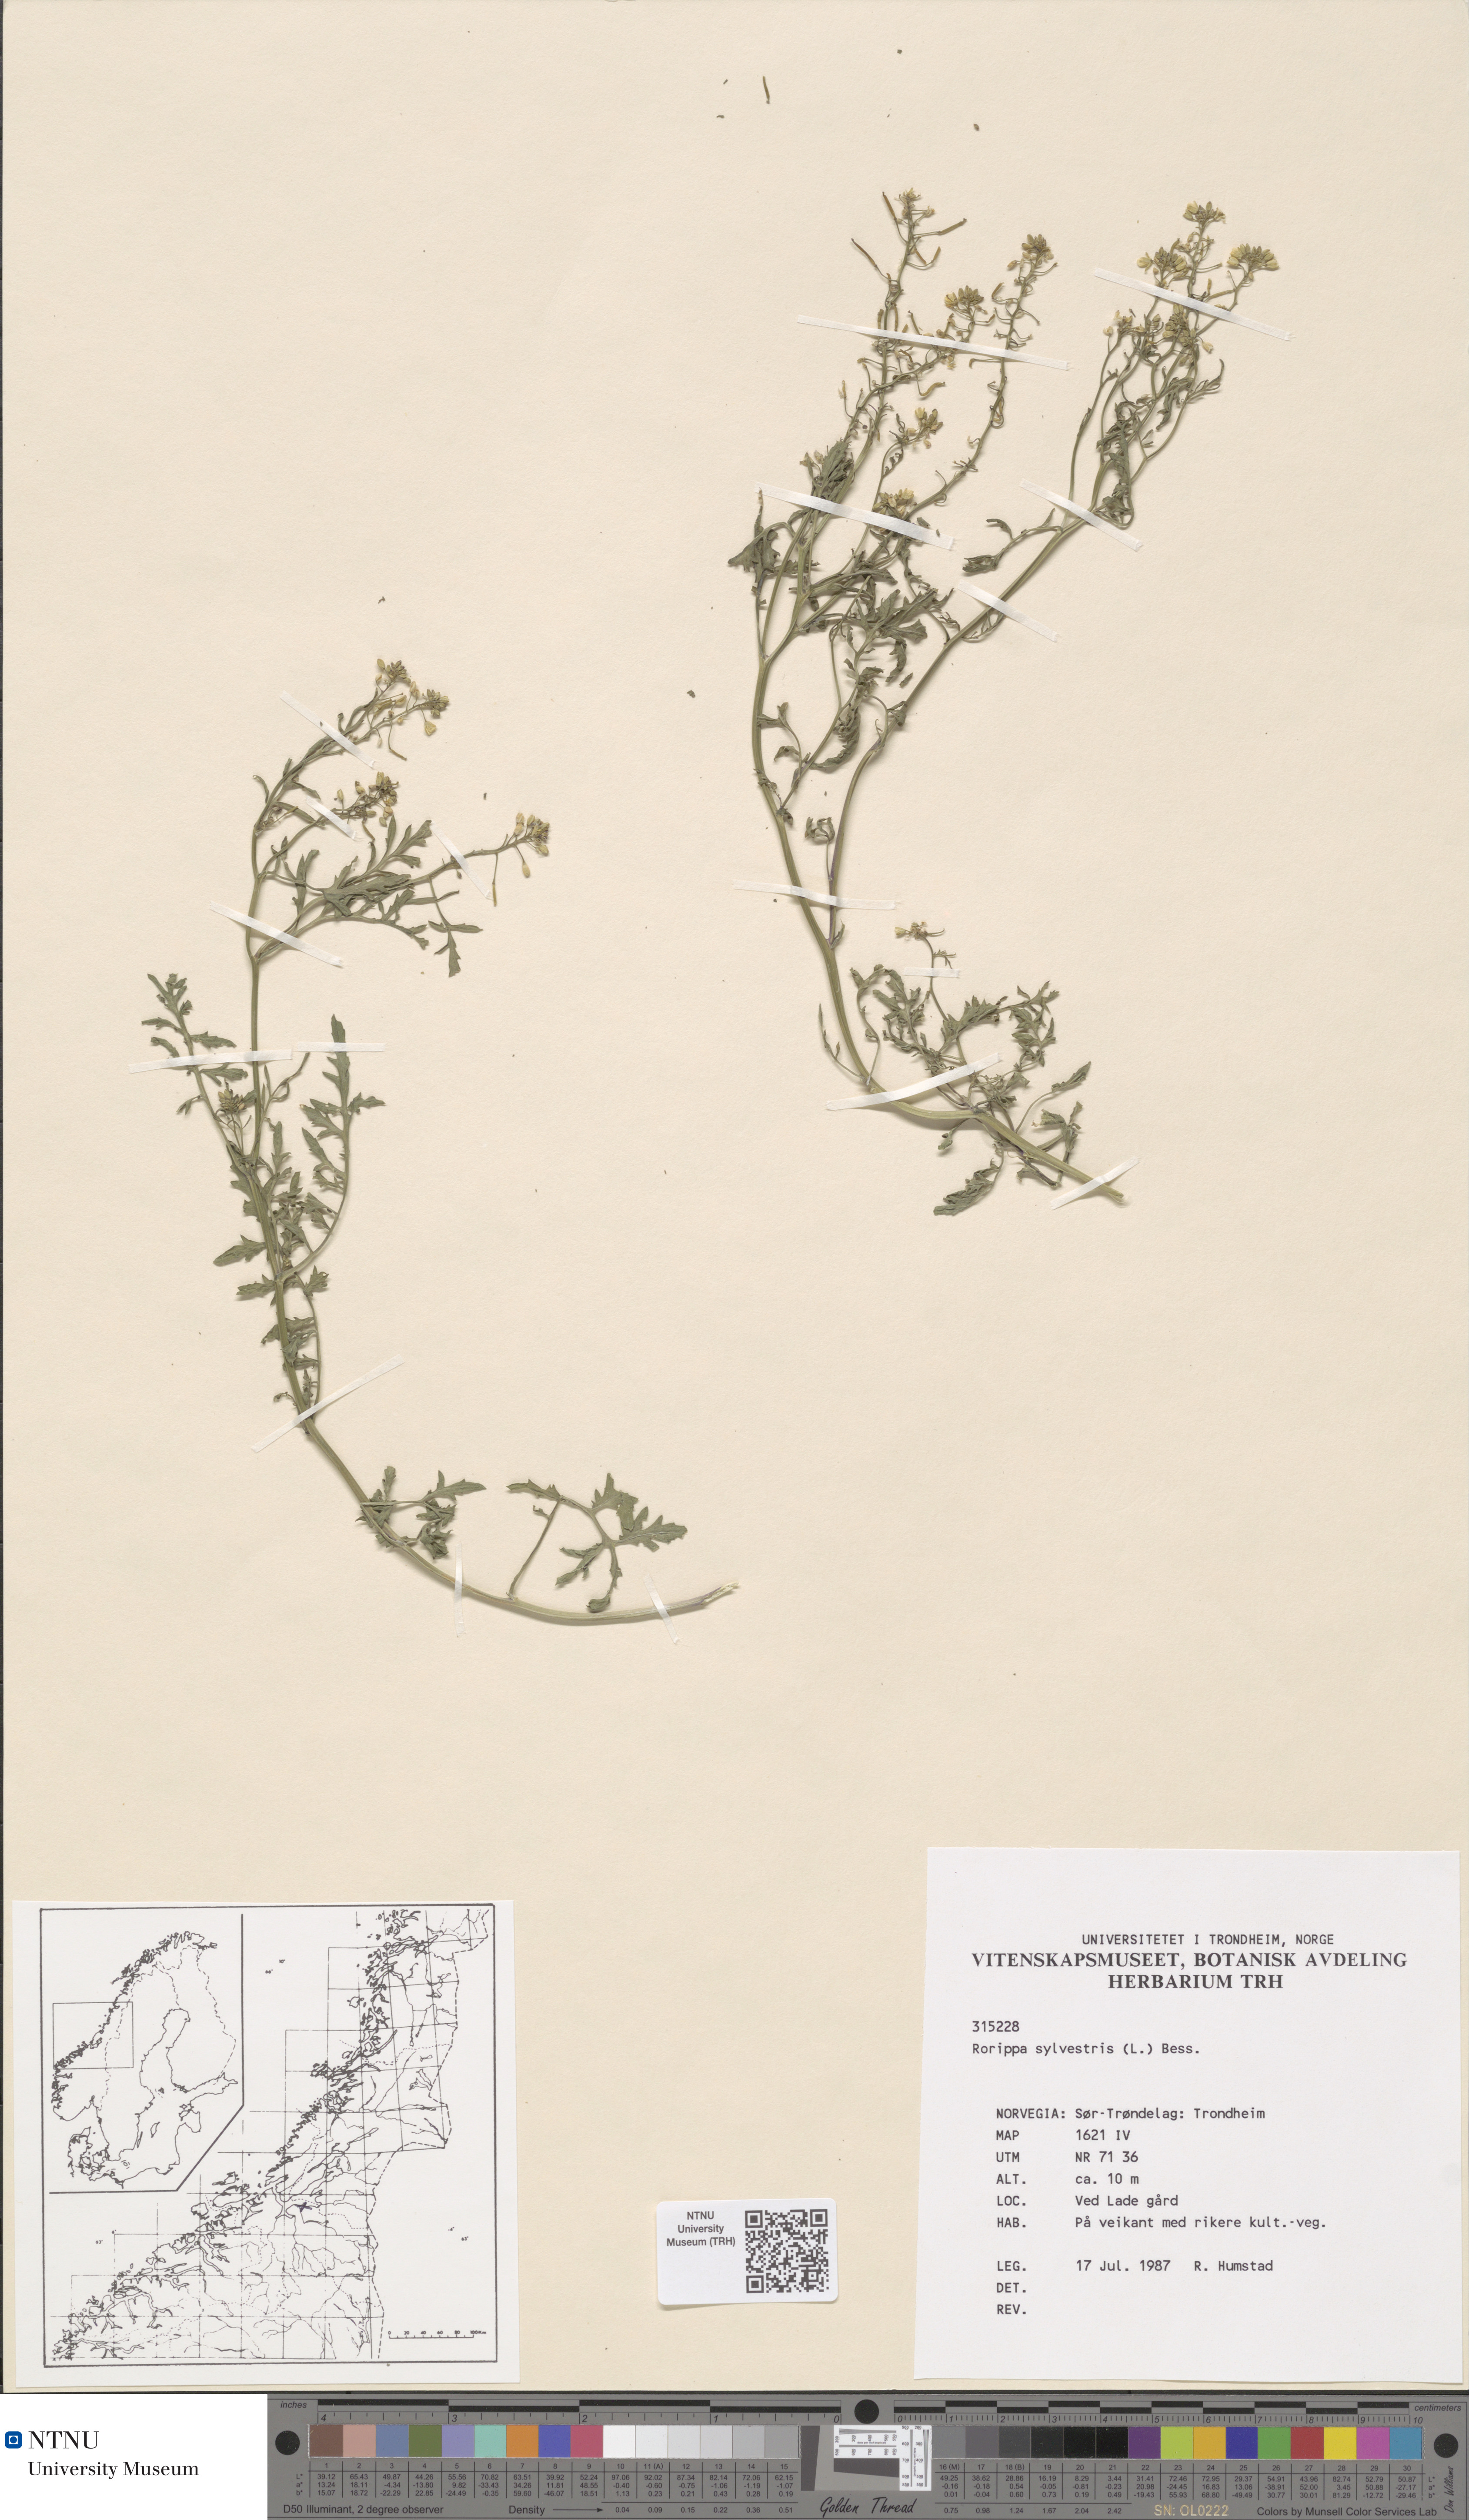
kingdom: Plantae
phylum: Tracheophyta
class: Magnoliopsida
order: Brassicales
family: Brassicaceae
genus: Rorippa
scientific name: Rorippa sylvestris
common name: Creeping yellowcress
